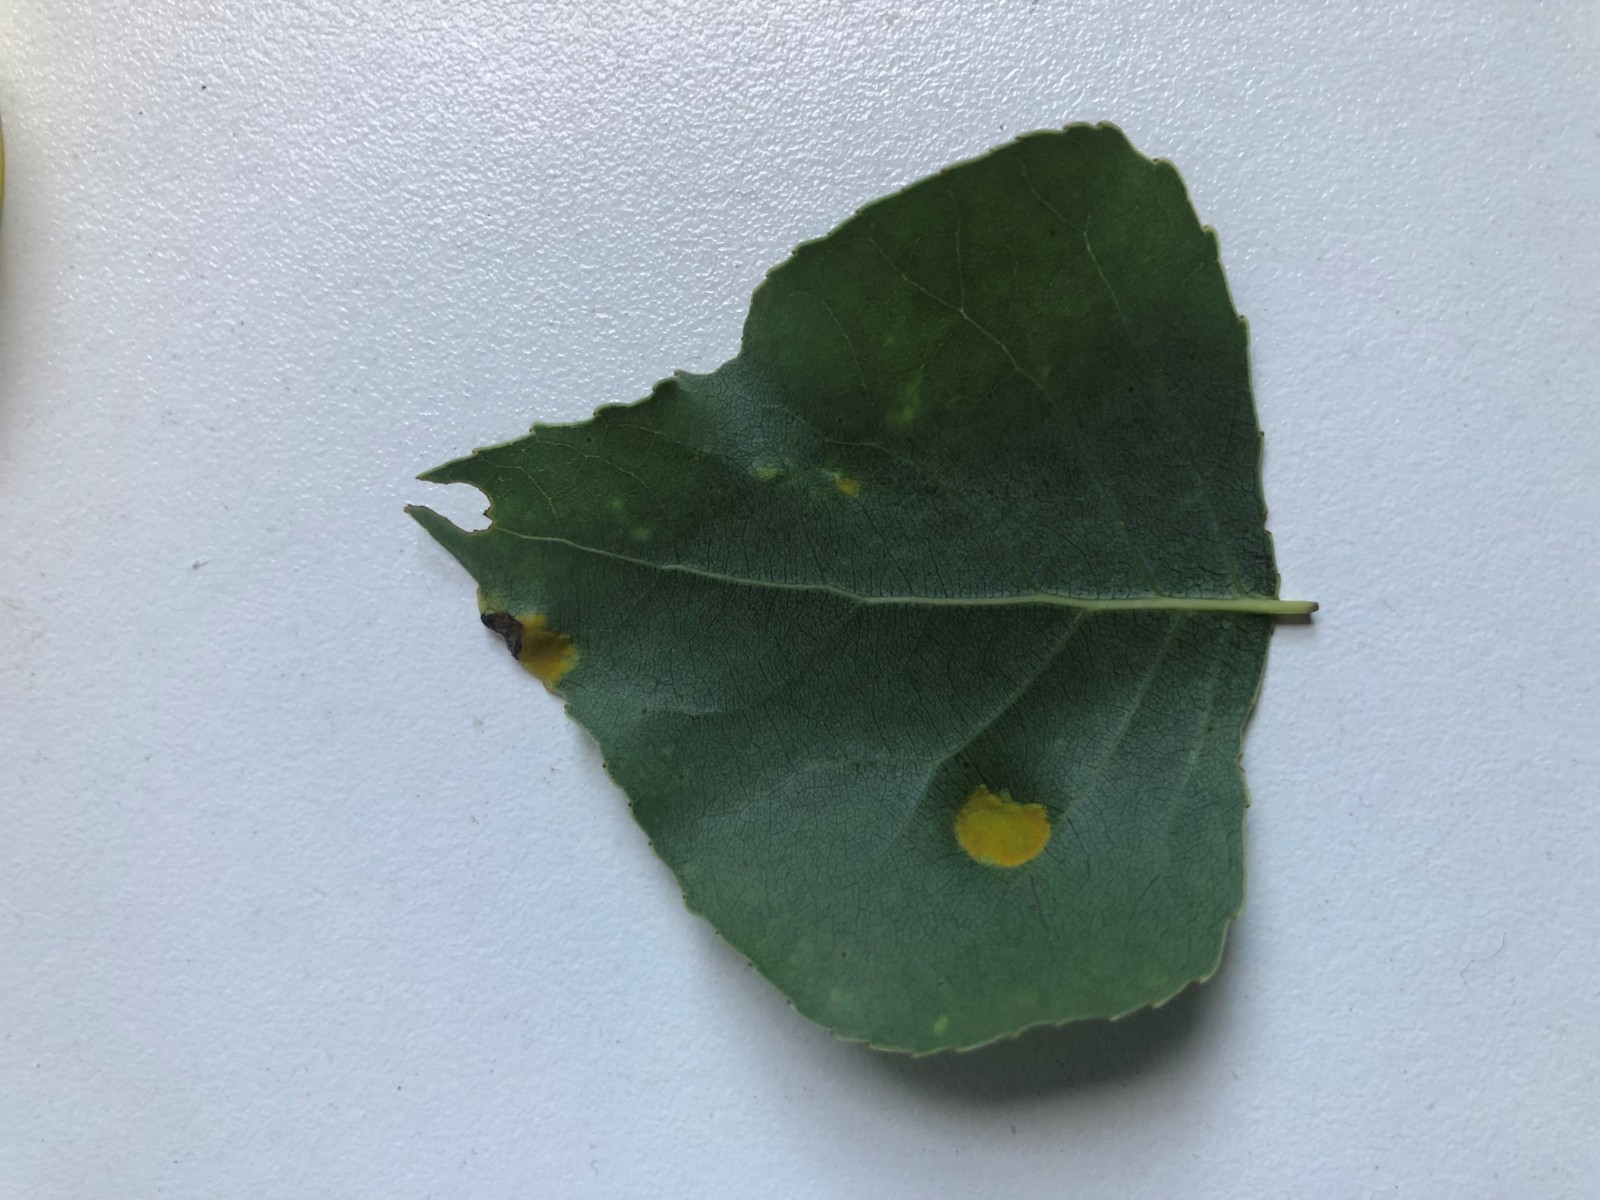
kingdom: Fungi
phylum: Ascomycota
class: Taphrinomycetes
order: Taphrinales
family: Taphrinaceae
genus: Taphrina
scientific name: Taphrina populina
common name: Poplar leaf curl
